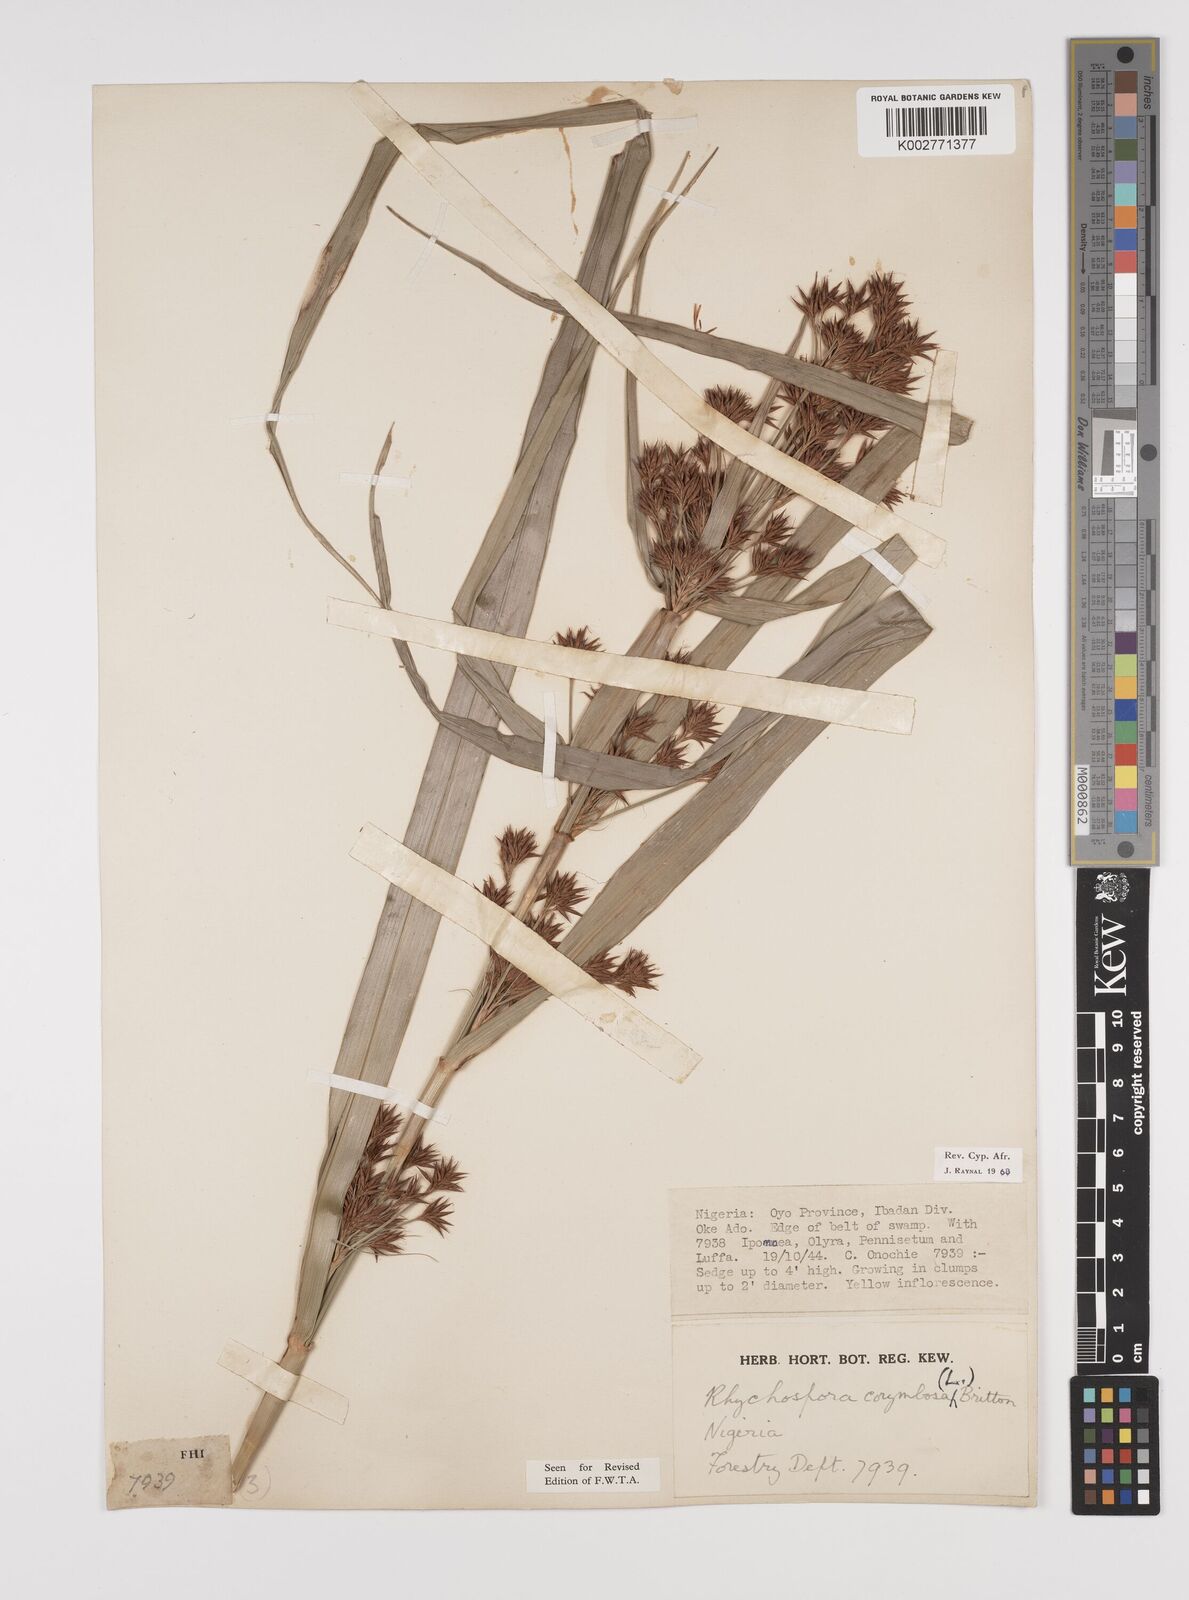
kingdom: Plantae
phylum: Tracheophyta
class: Liliopsida
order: Poales
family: Cyperaceae
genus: Rhynchospora
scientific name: Rhynchospora corymbosa
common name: Golden beak sedge
